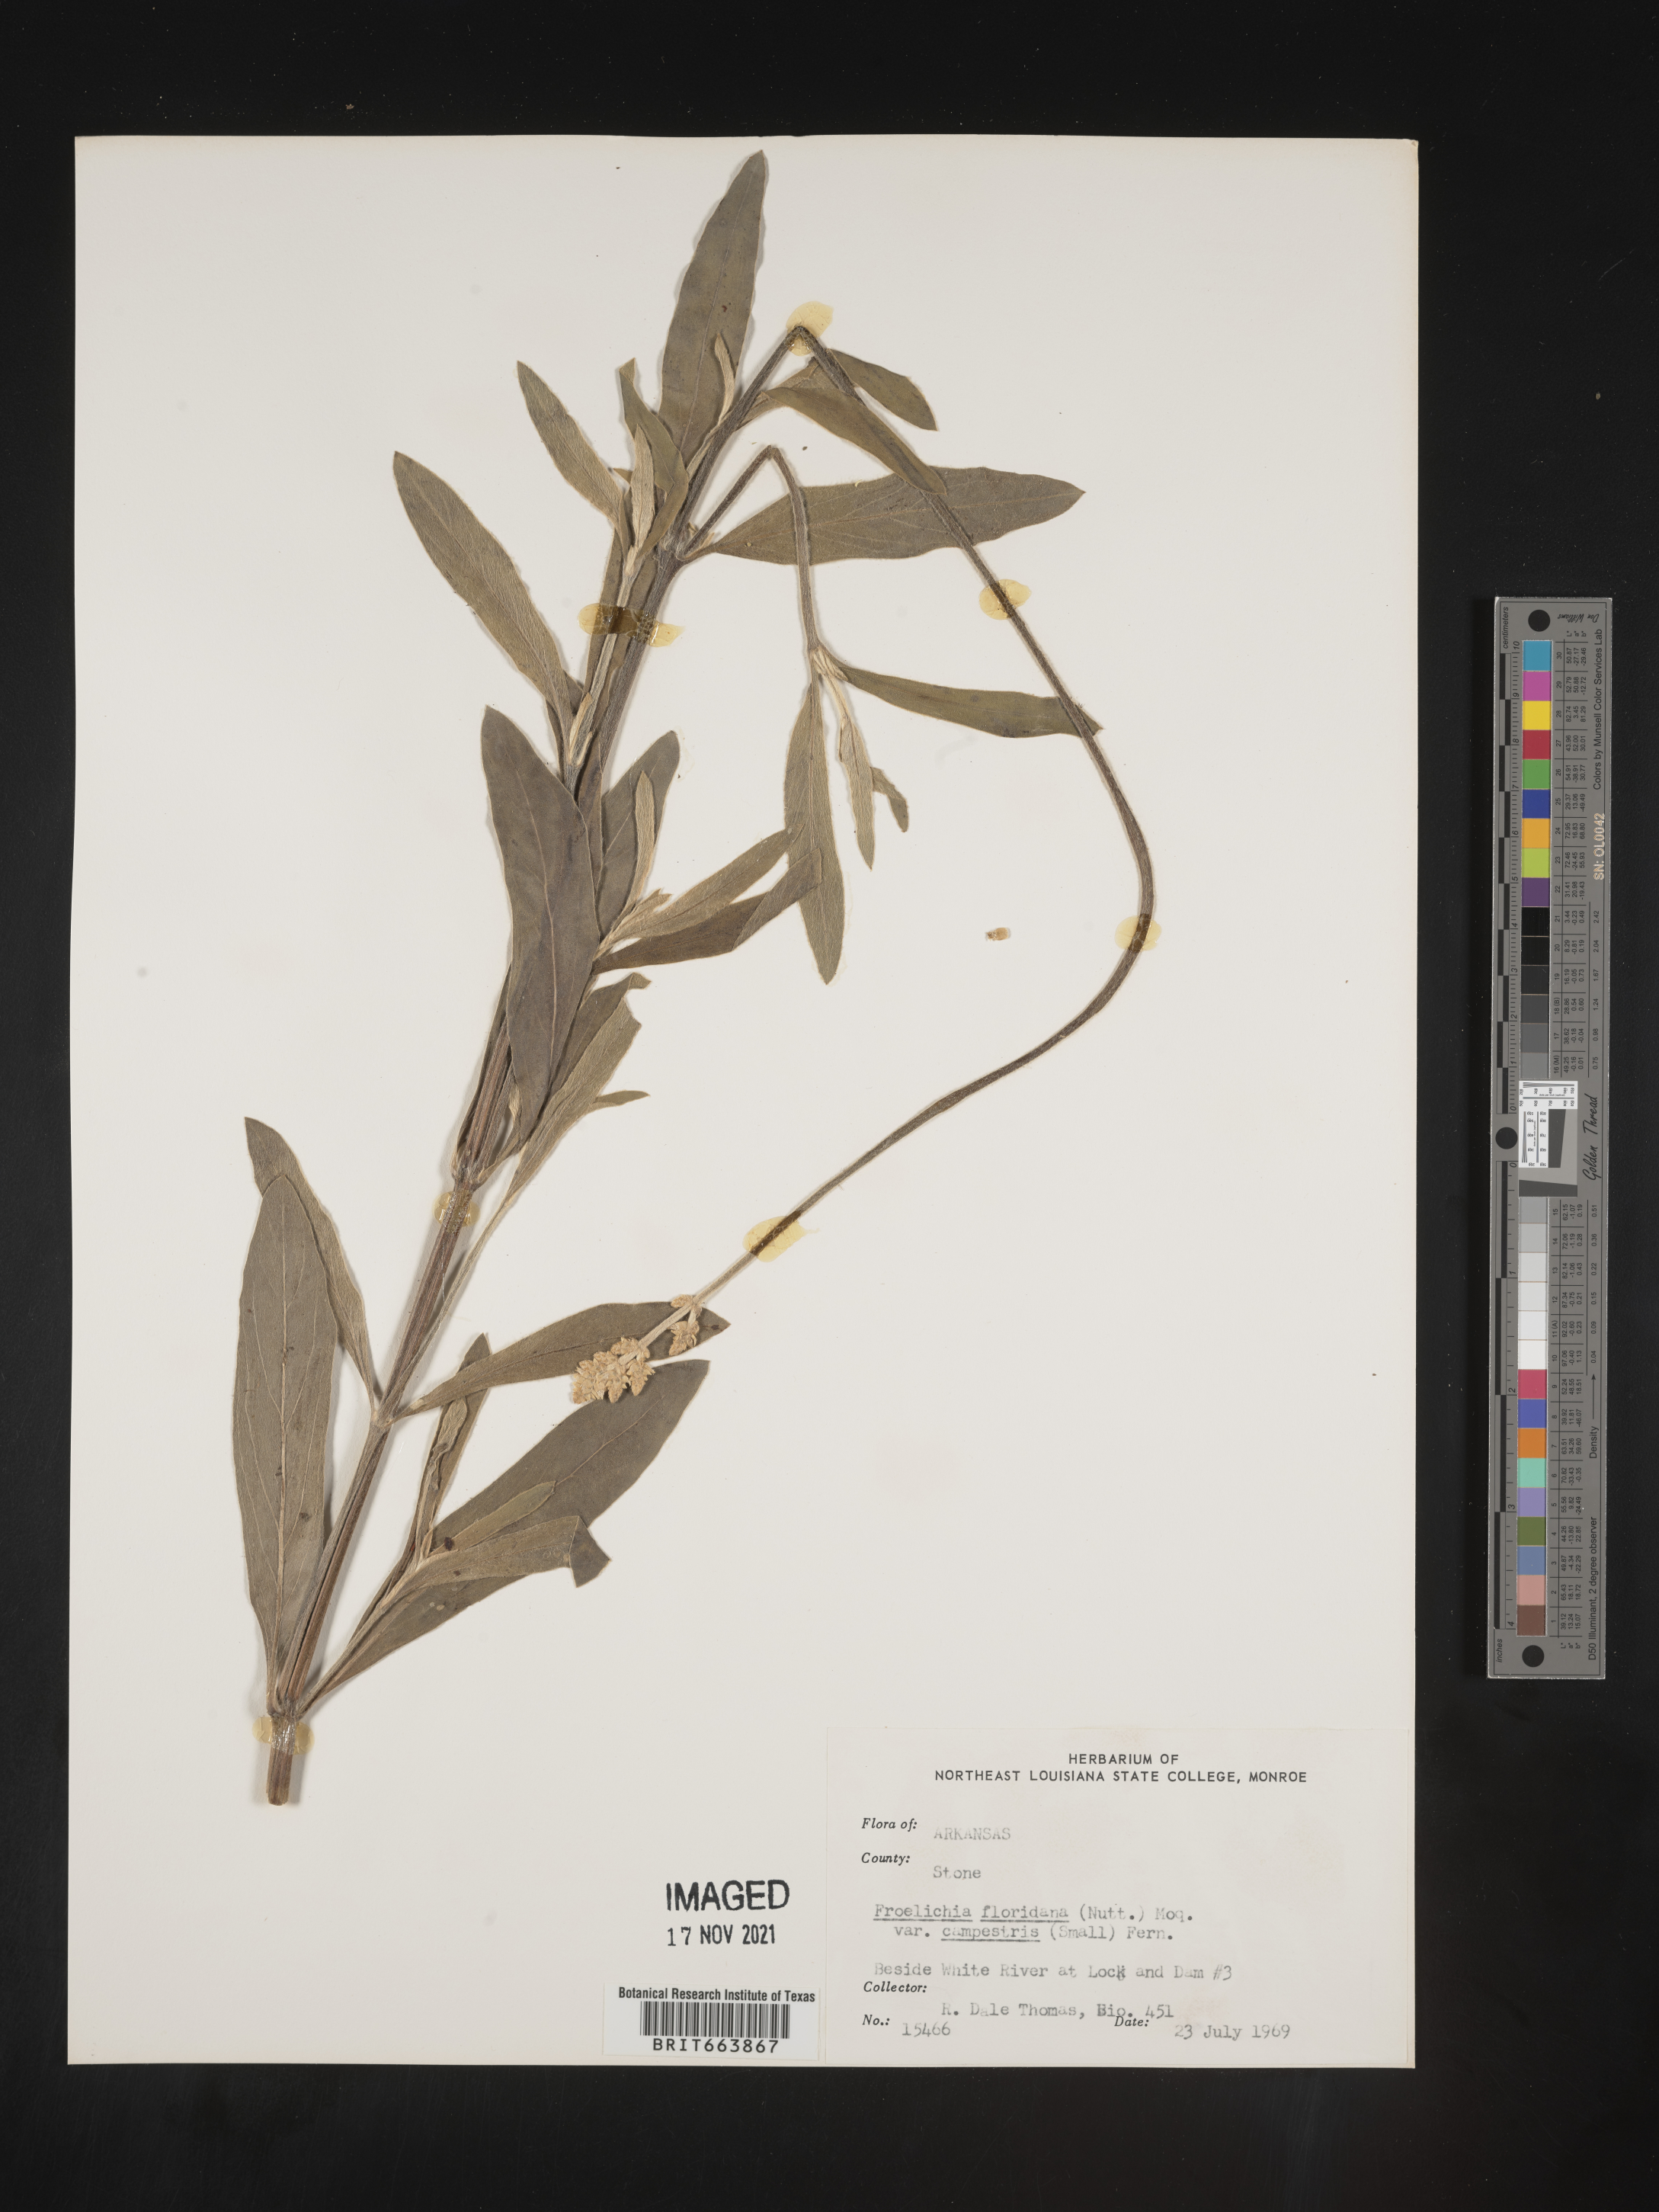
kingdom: Plantae
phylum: Tracheophyta
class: Magnoliopsida
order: Caryophyllales
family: Amaranthaceae
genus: Froelichia
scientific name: Froelichia floridana
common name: Florida snake-cotton
